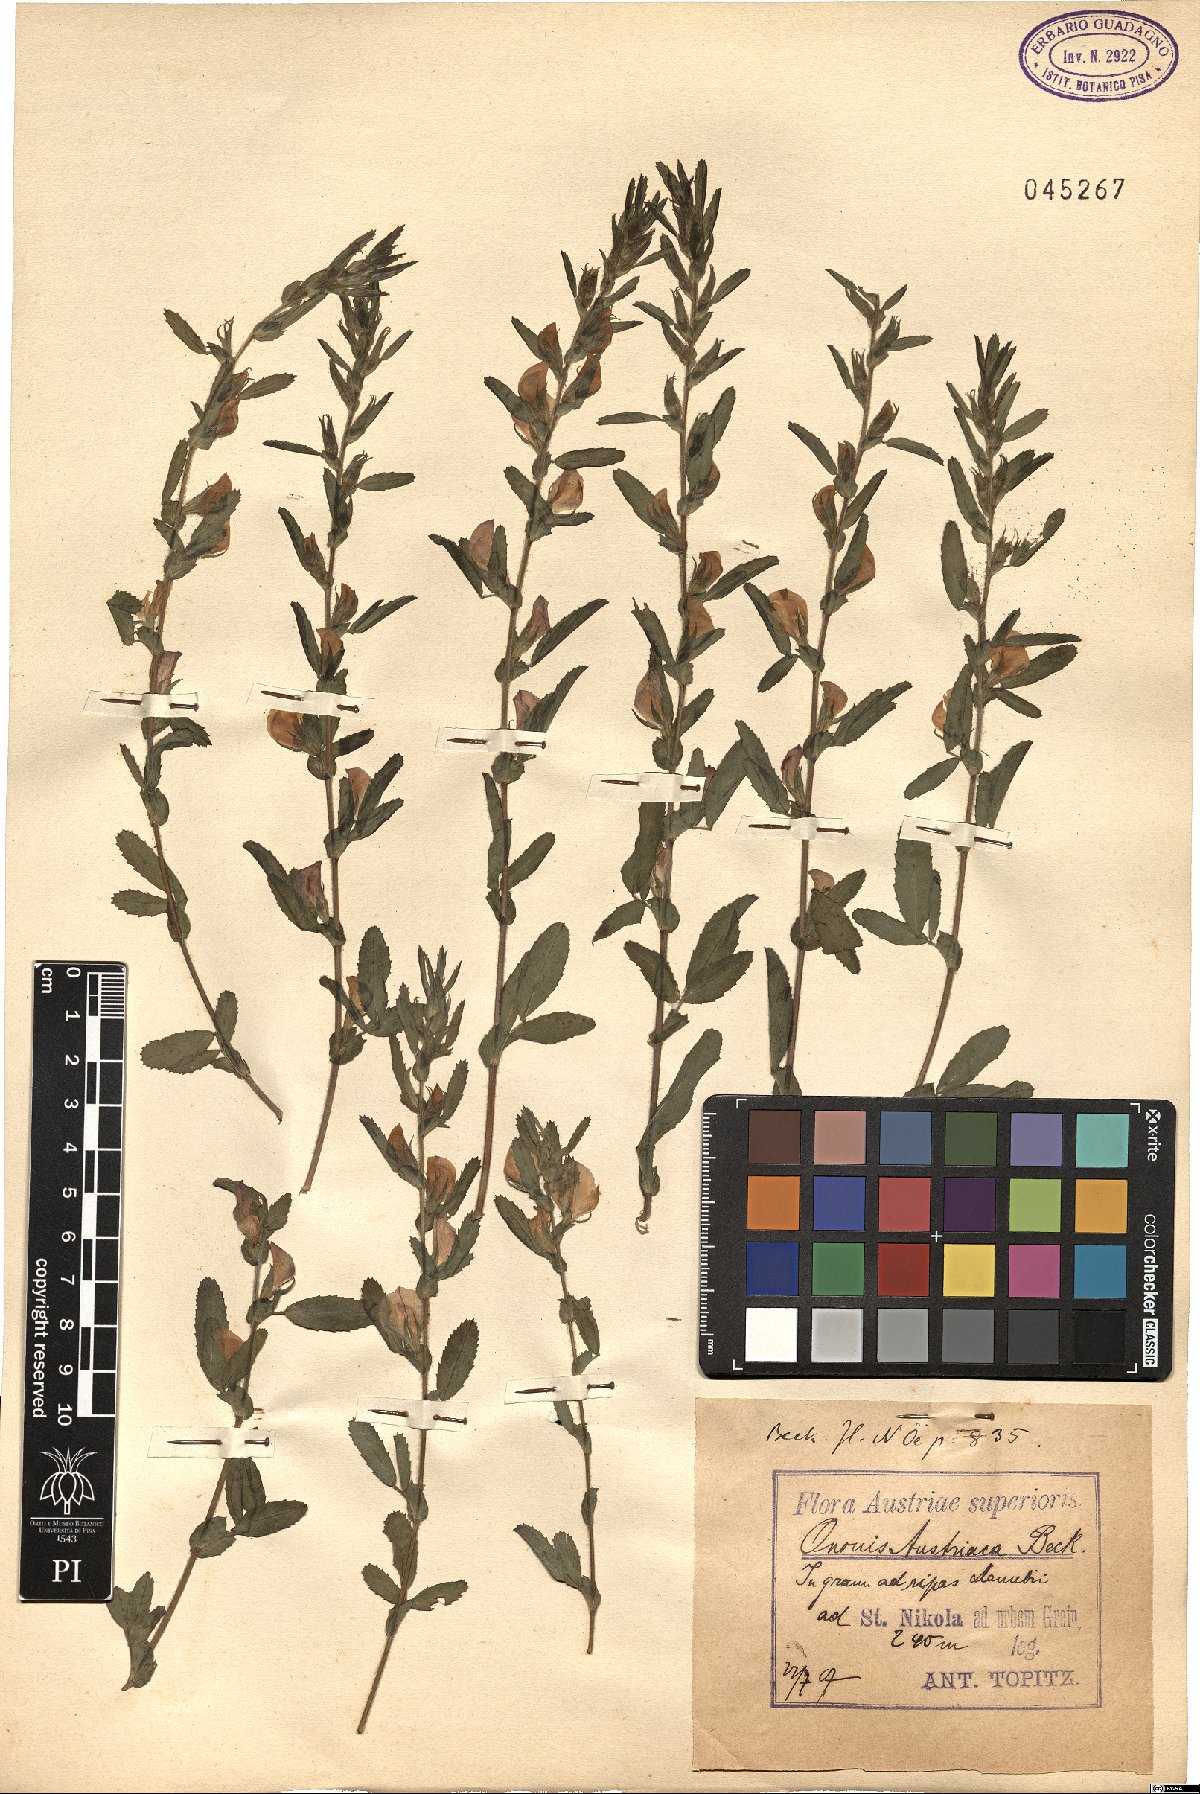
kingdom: Plantae
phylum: Tracheophyta
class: Magnoliopsida
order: Fabales
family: Fabaceae
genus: Ononis
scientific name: Ononis spinosa
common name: Spiny restharrow
